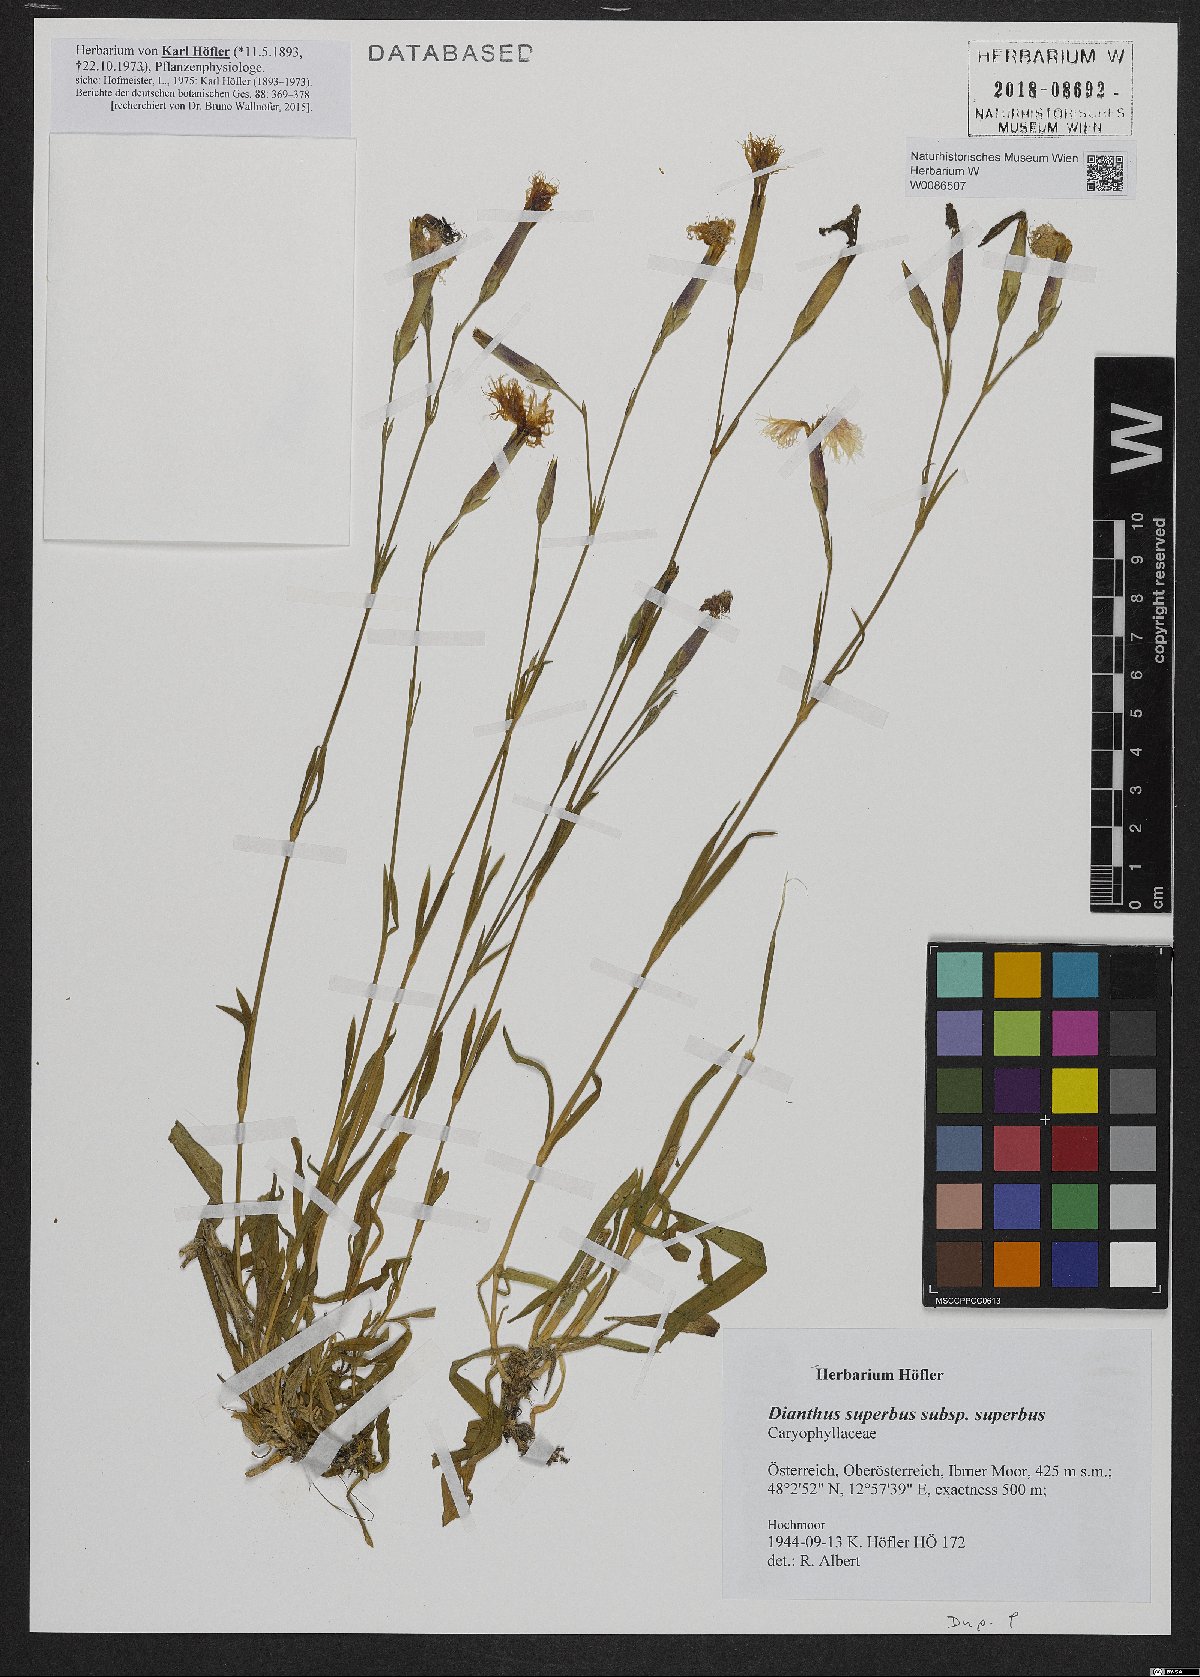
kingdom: Plantae
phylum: Tracheophyta
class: Magnoliopsida
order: Caryophyllales
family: Caryophyllaceae
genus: Dianthus
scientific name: Dianthus superbus
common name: Fringed pink
